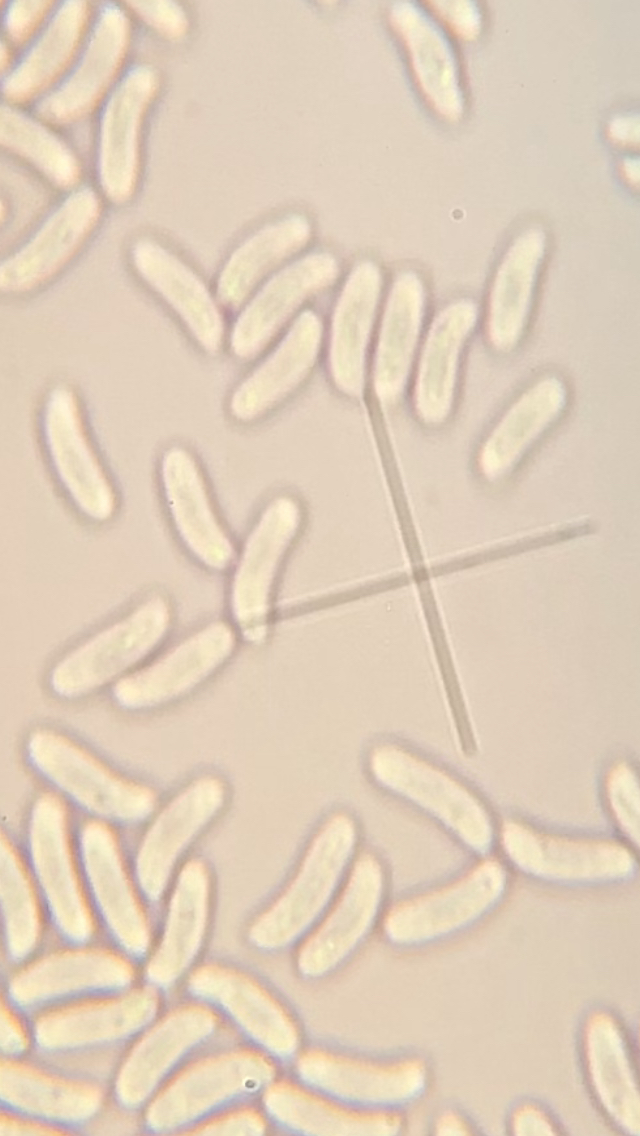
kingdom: Fungi
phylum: Basidiomycota
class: Agaricomycetes
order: Russulales
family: Peniophoraceae
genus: Peniophora
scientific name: Peniophora
